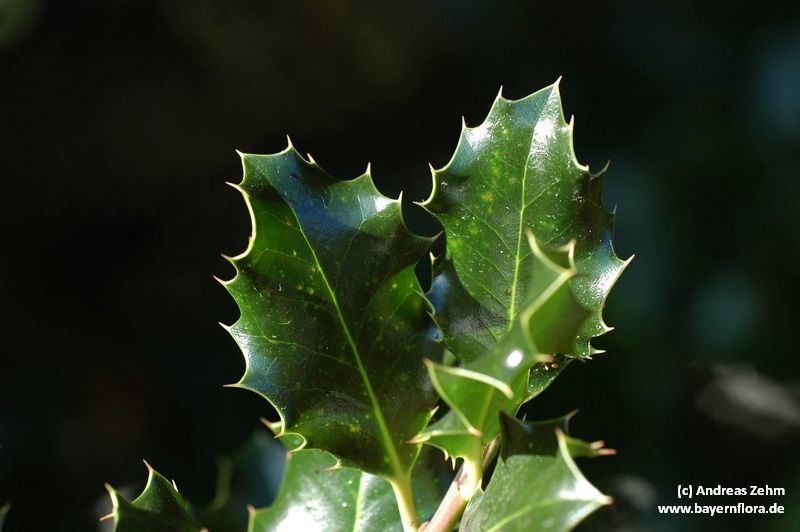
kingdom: Plantae
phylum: Tracheophyta
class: Magnoliopsida
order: Aquifoliales
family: Aquifoliaceae
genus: Ilex
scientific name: Ilex aquifolium
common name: English holly
